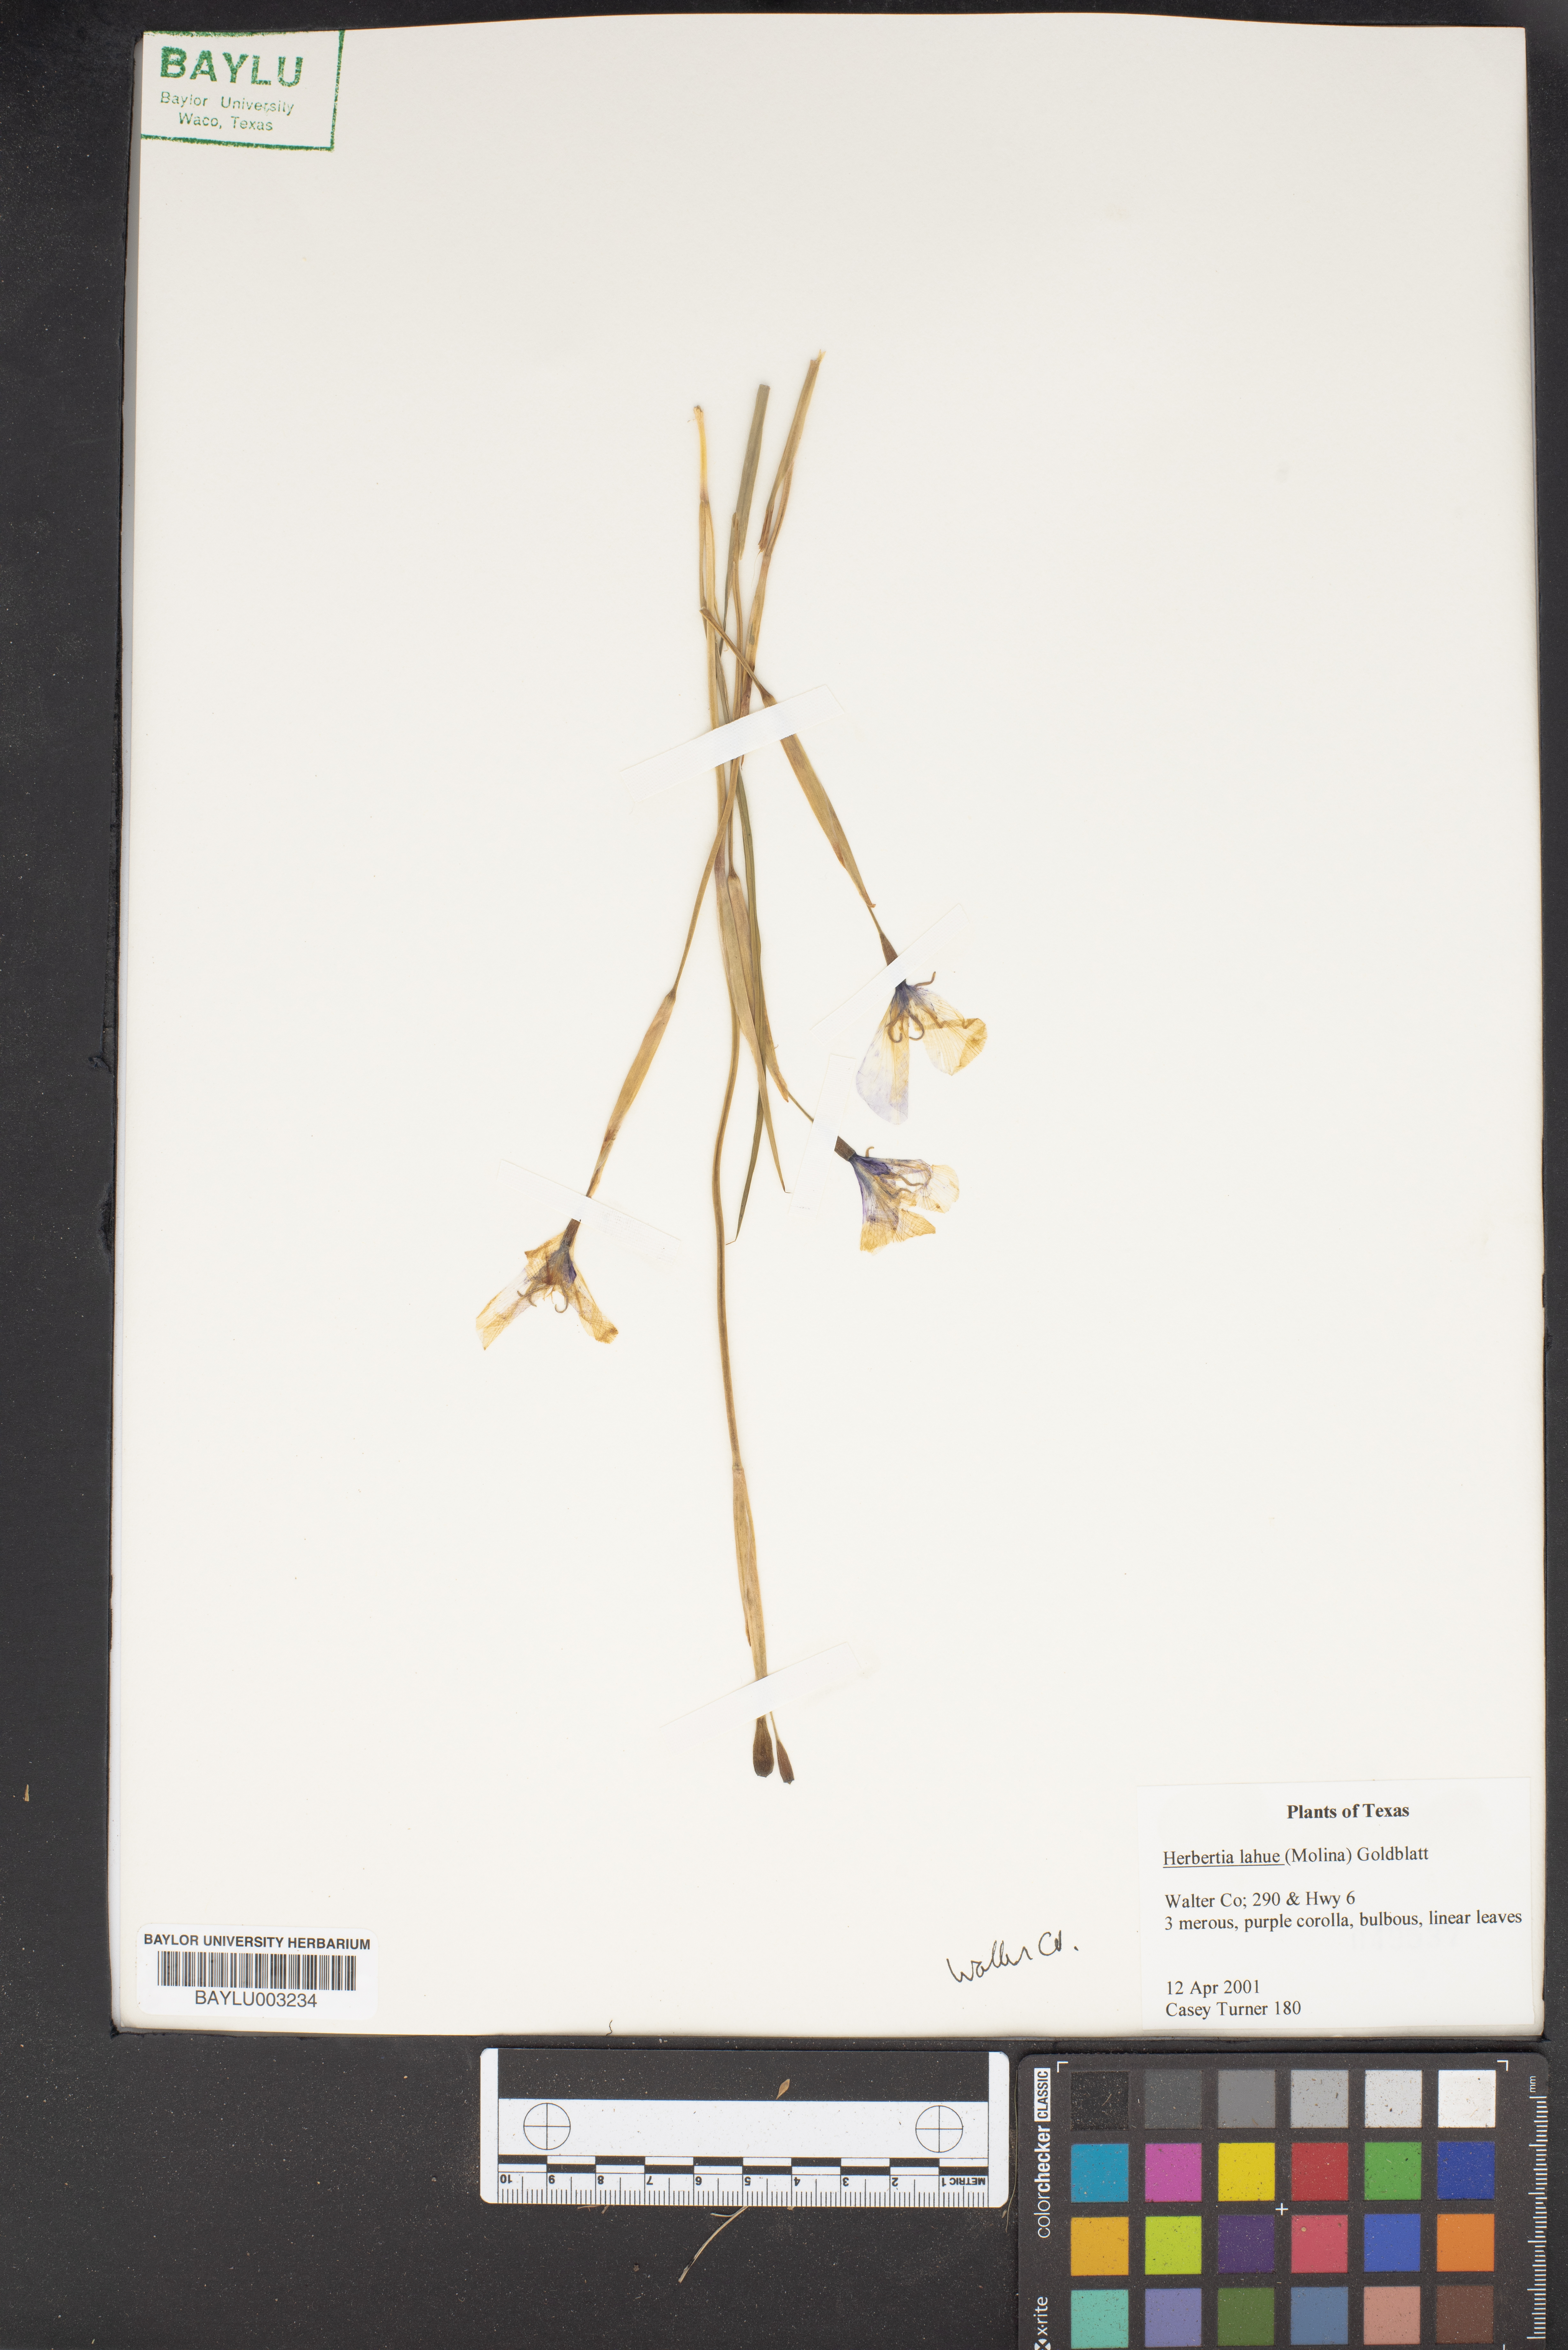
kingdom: Plantae
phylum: Tracheophyta
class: Liliopsida
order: Asparagales
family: Iridaceae
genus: Herbertia
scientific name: Herbertia lahue
